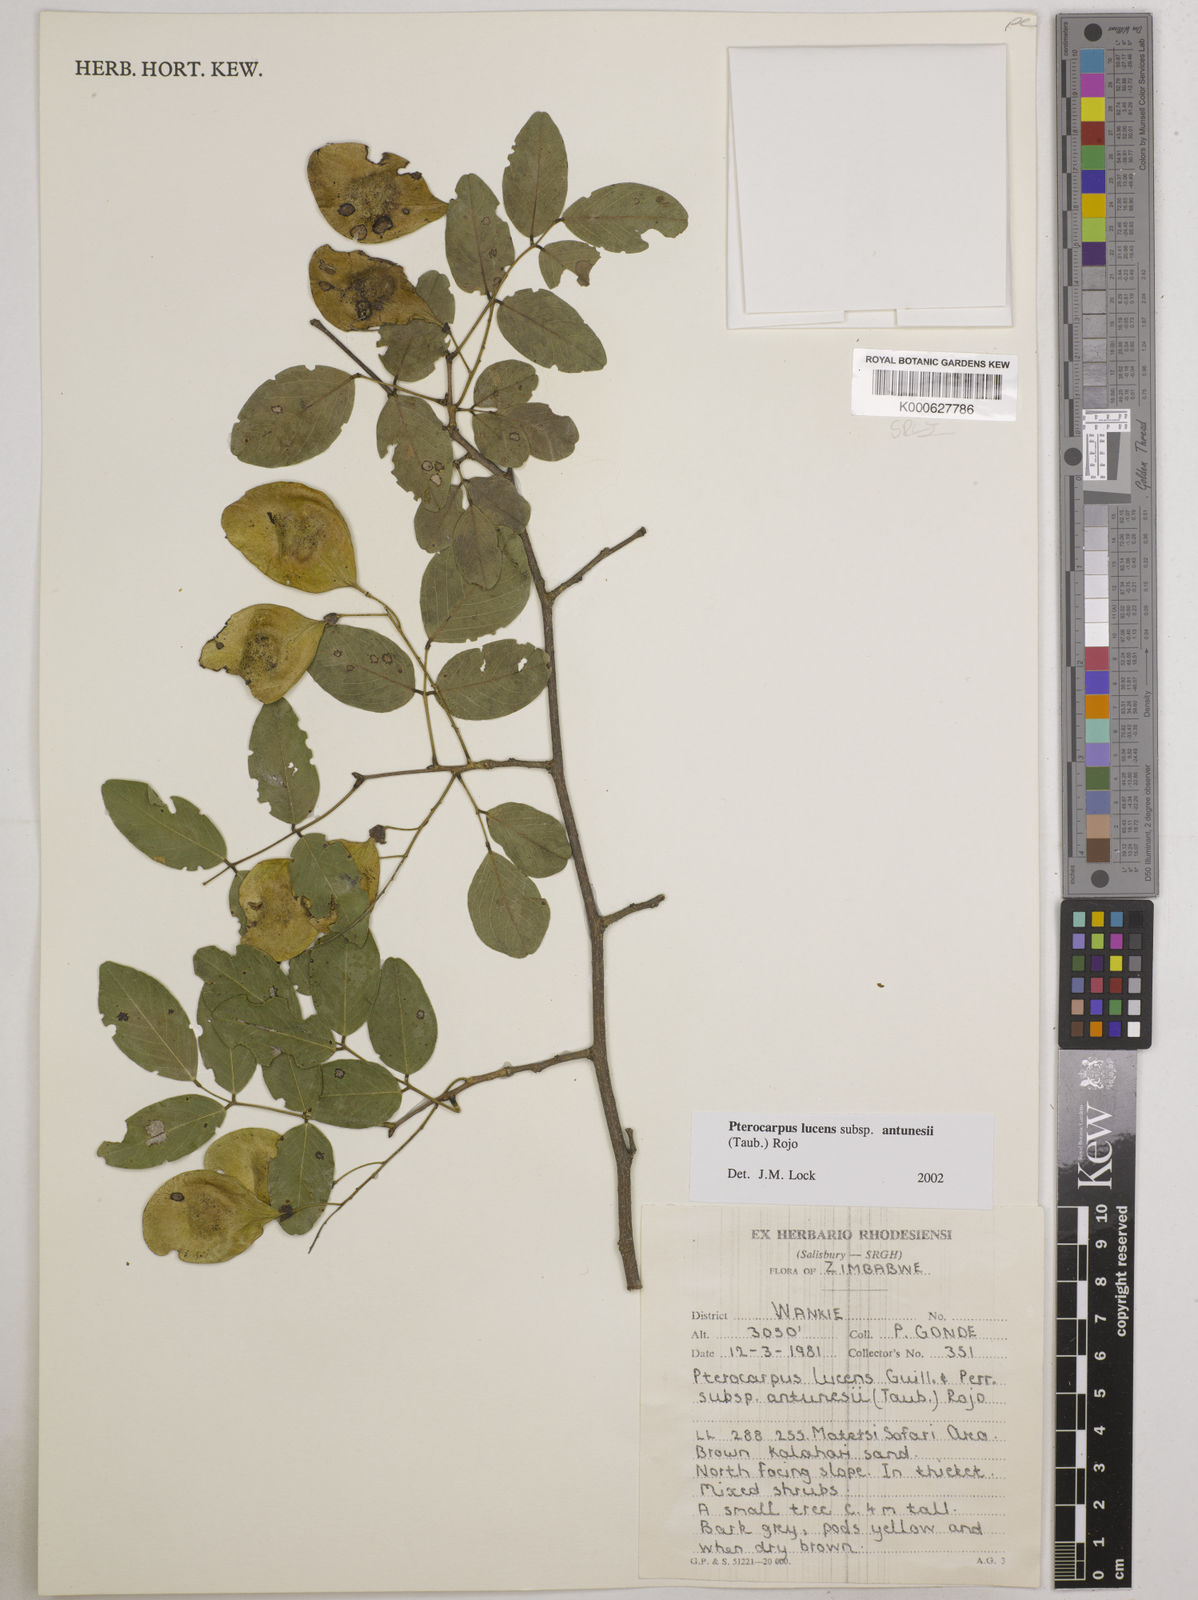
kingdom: Plantae
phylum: Tracheophyta
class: Magnoliopsida
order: Fabales
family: Fabaceae
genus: Pterocarpus
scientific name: Pterocarpus lucens
